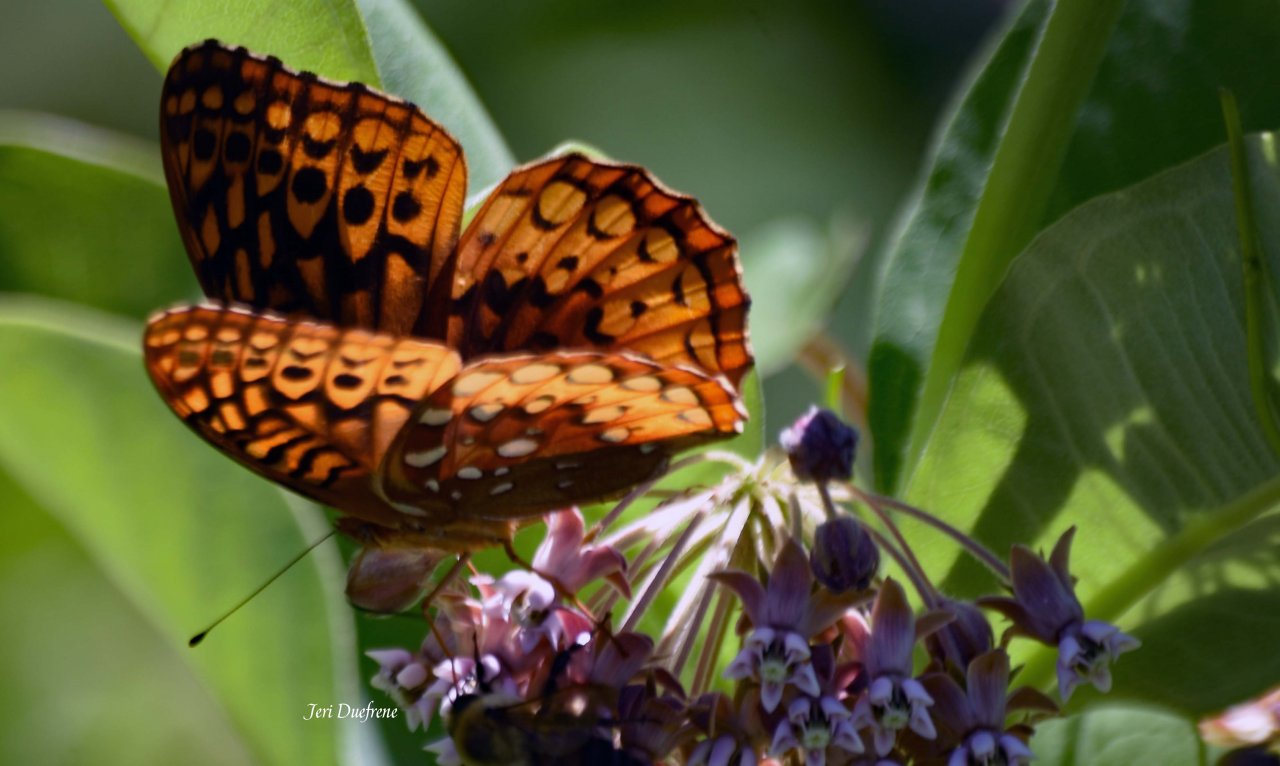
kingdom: Animalia
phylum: Arthropoda
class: Insecta
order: Lepidoptera
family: Nymphalidae
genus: Speyeria
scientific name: Speyeria cybele
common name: Great Spangled Fritillary
